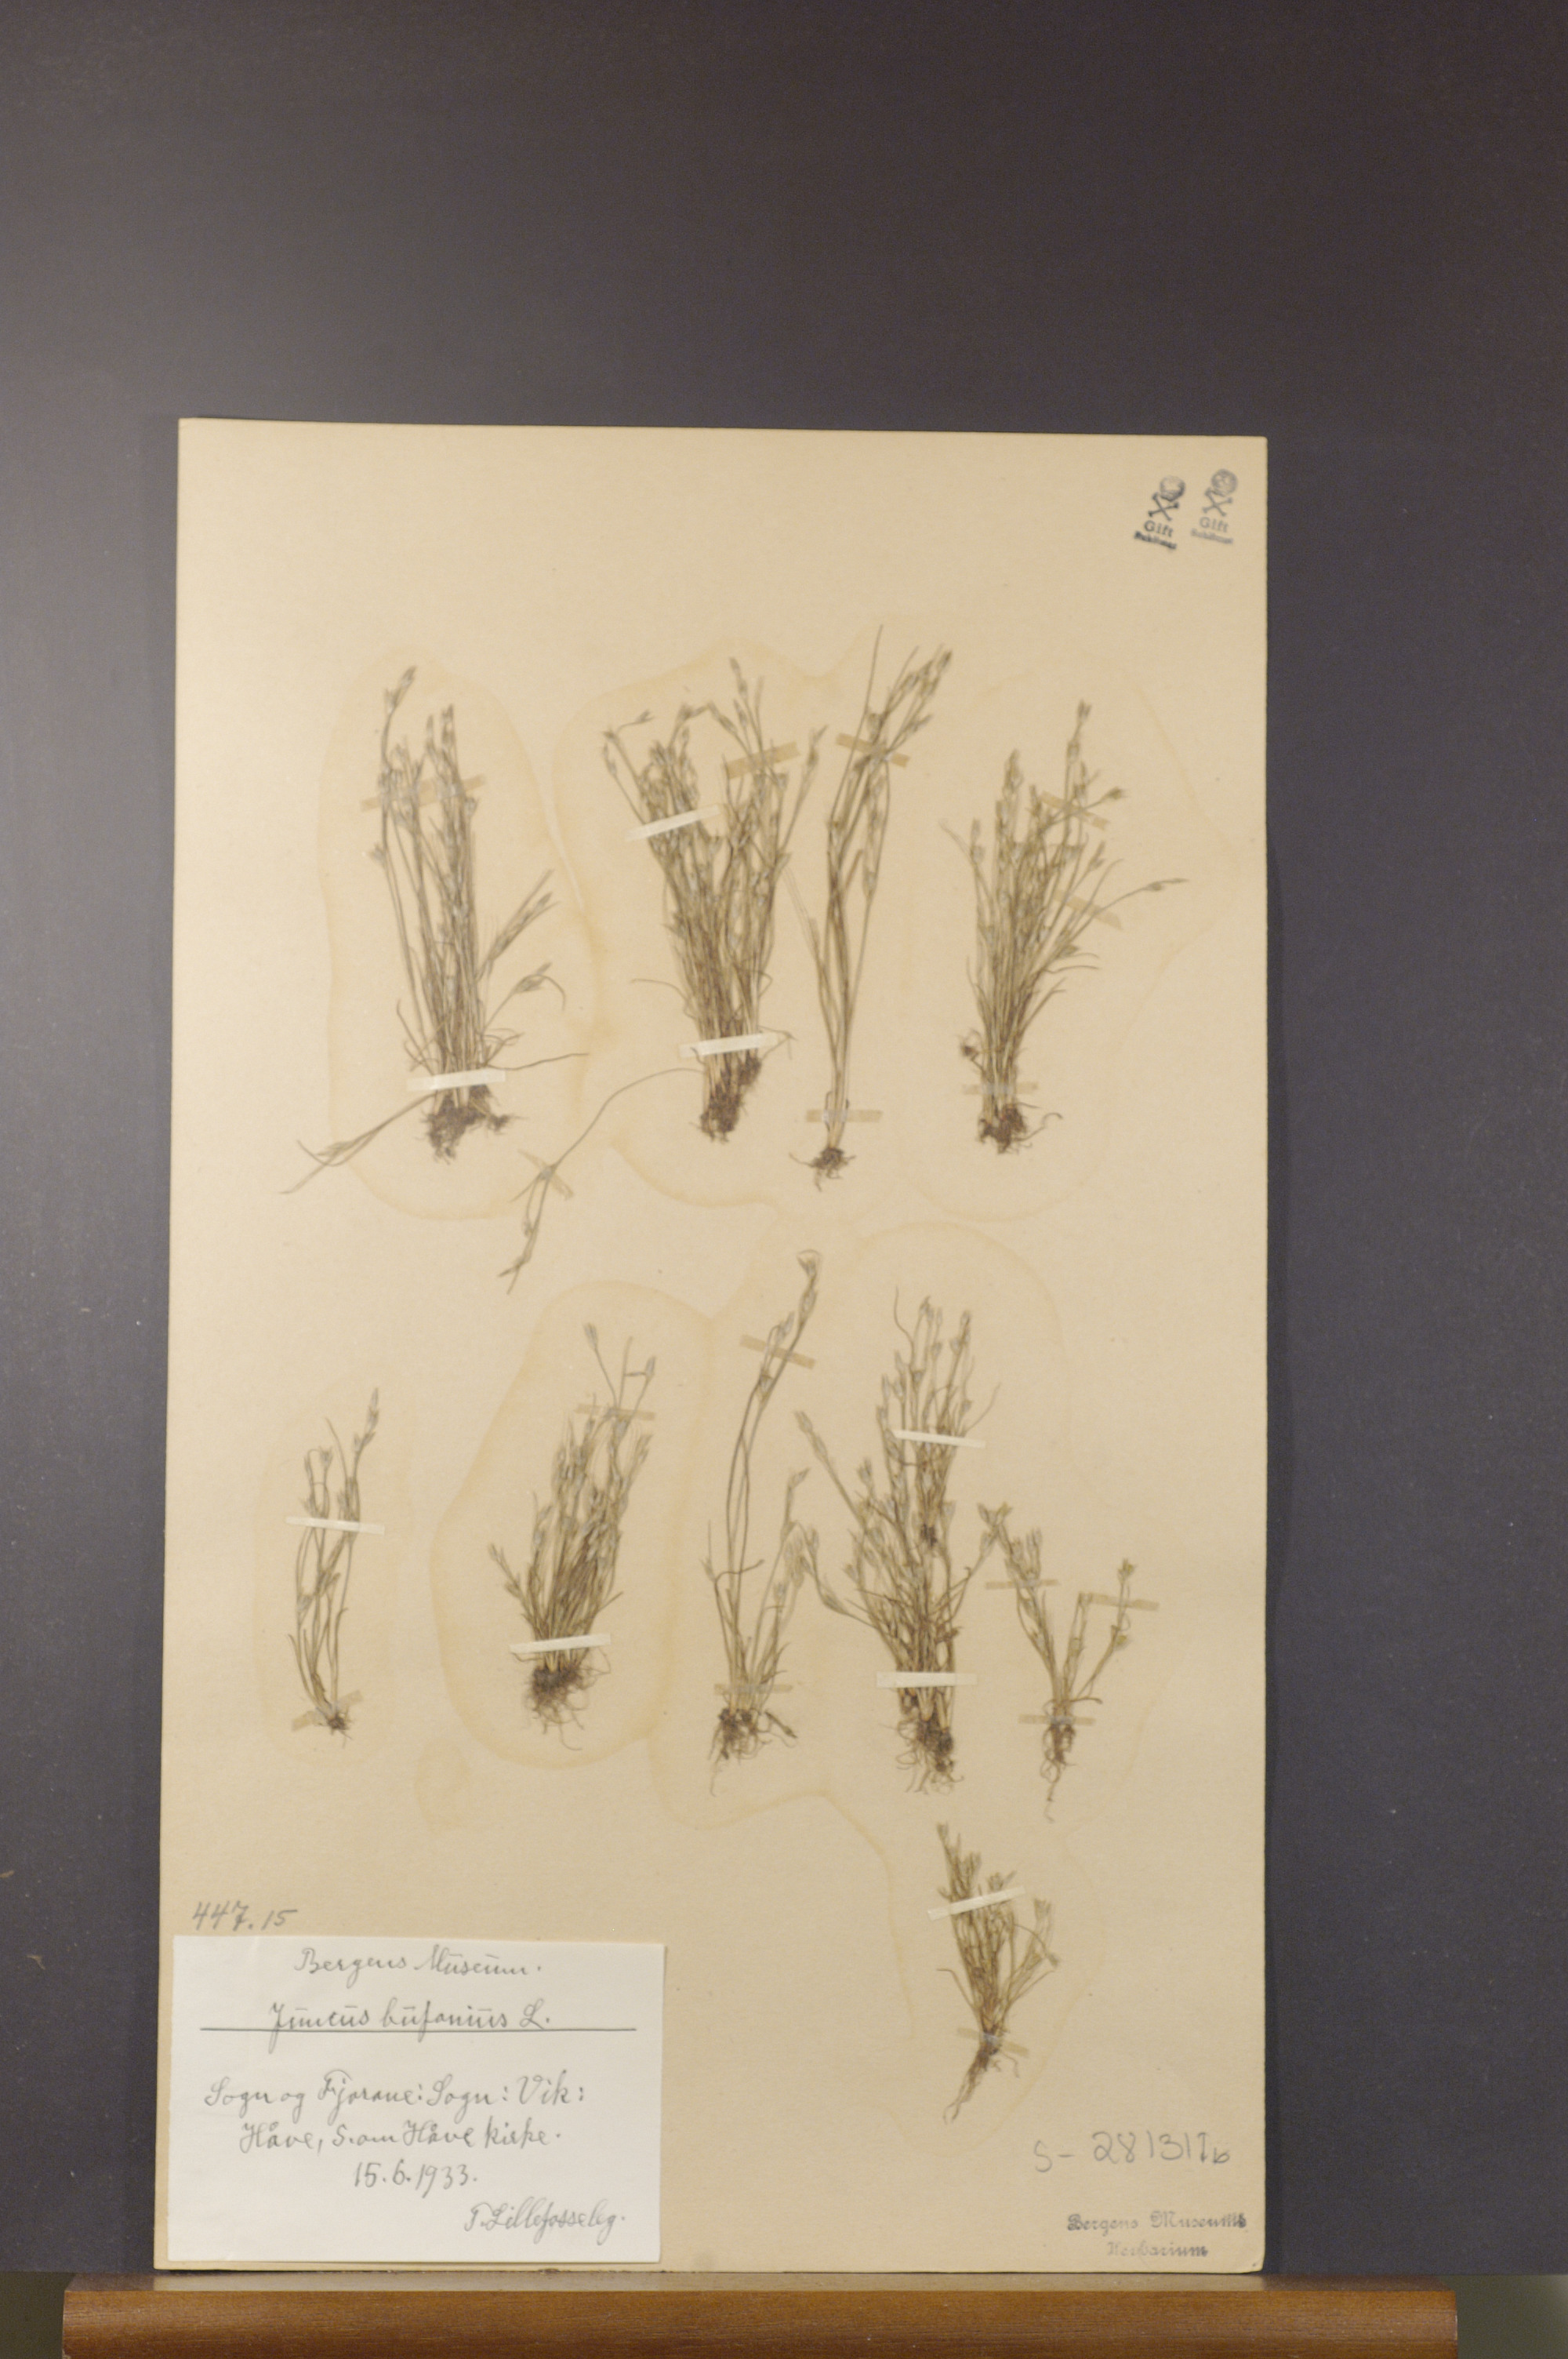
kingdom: Plantae
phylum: Tracheophyta
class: Liliopsida
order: Poales
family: Juncaceae
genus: Juncus
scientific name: Juncus minutulus
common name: Minute rush
